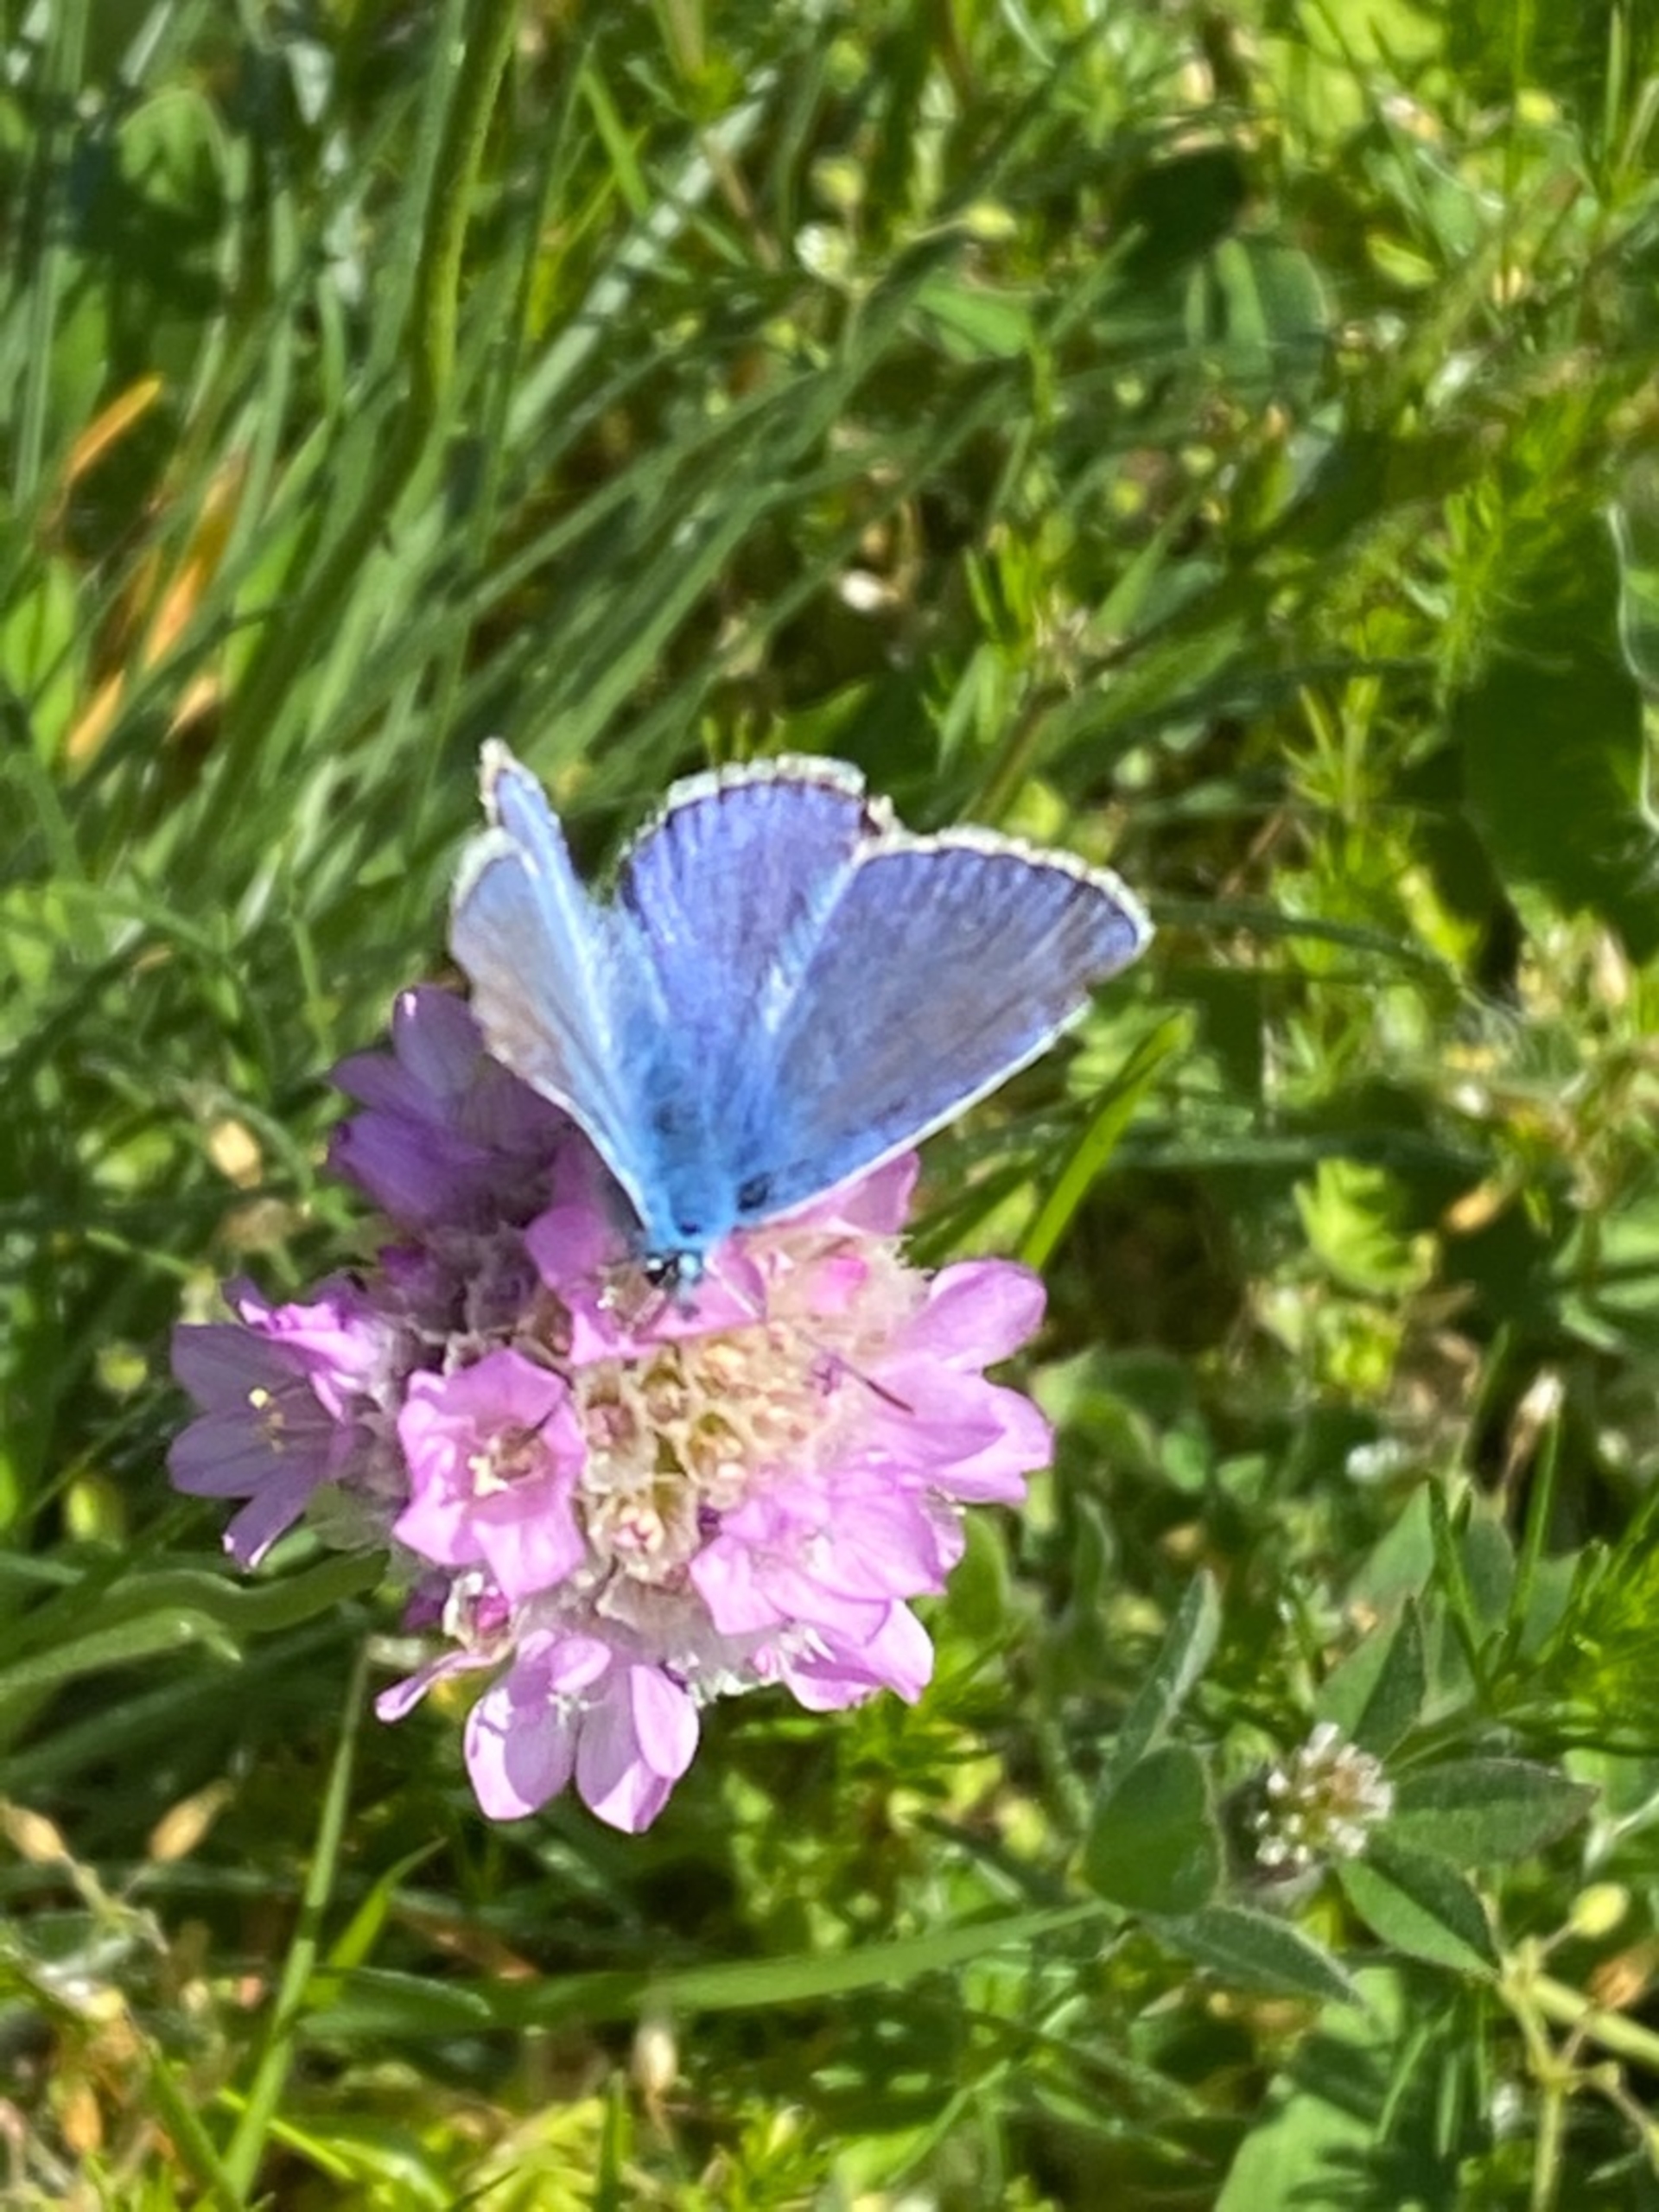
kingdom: Animalia
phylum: Arthropoda
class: Insecta
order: Lepidoptera
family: Lycaenidae
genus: Polyommatus
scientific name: Polyommatus icarus
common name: Almindelig blåfugl
